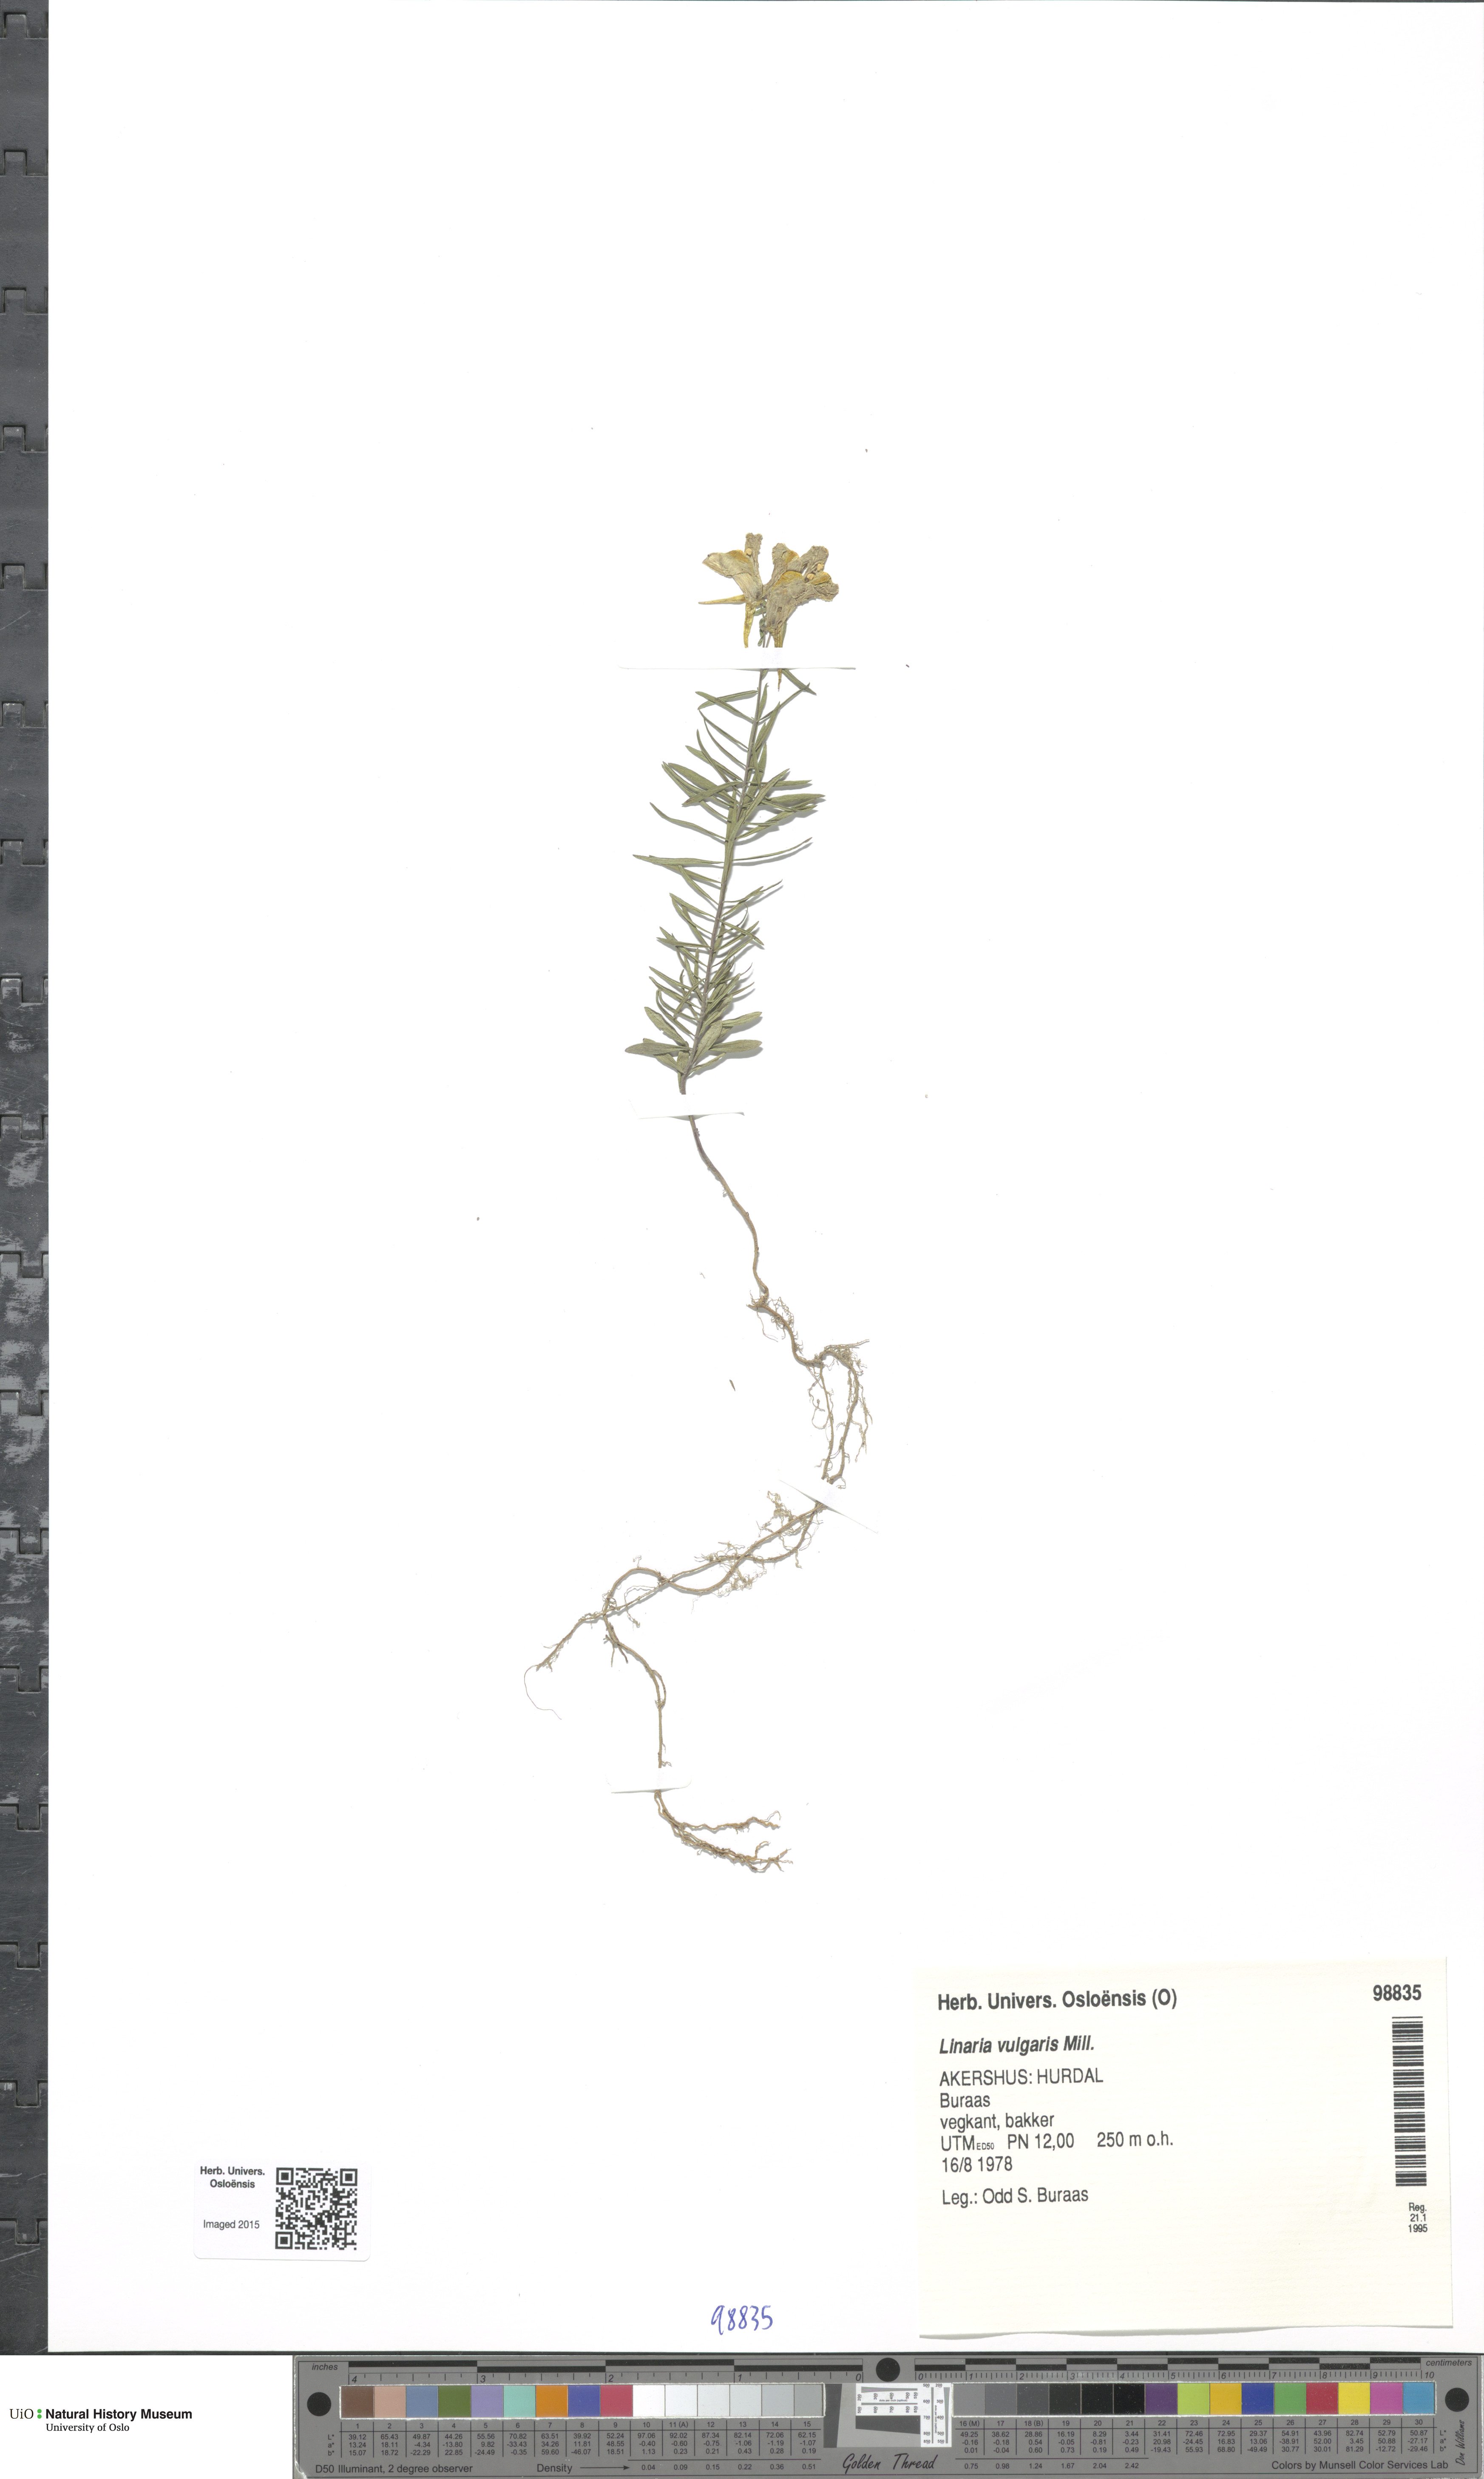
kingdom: Plantae
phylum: Tracheophyta
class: Magnoliopsida
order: Lamiales
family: Plantaginaceae
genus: Linaria
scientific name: Linaria vulgaris
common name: Butter and eggs
